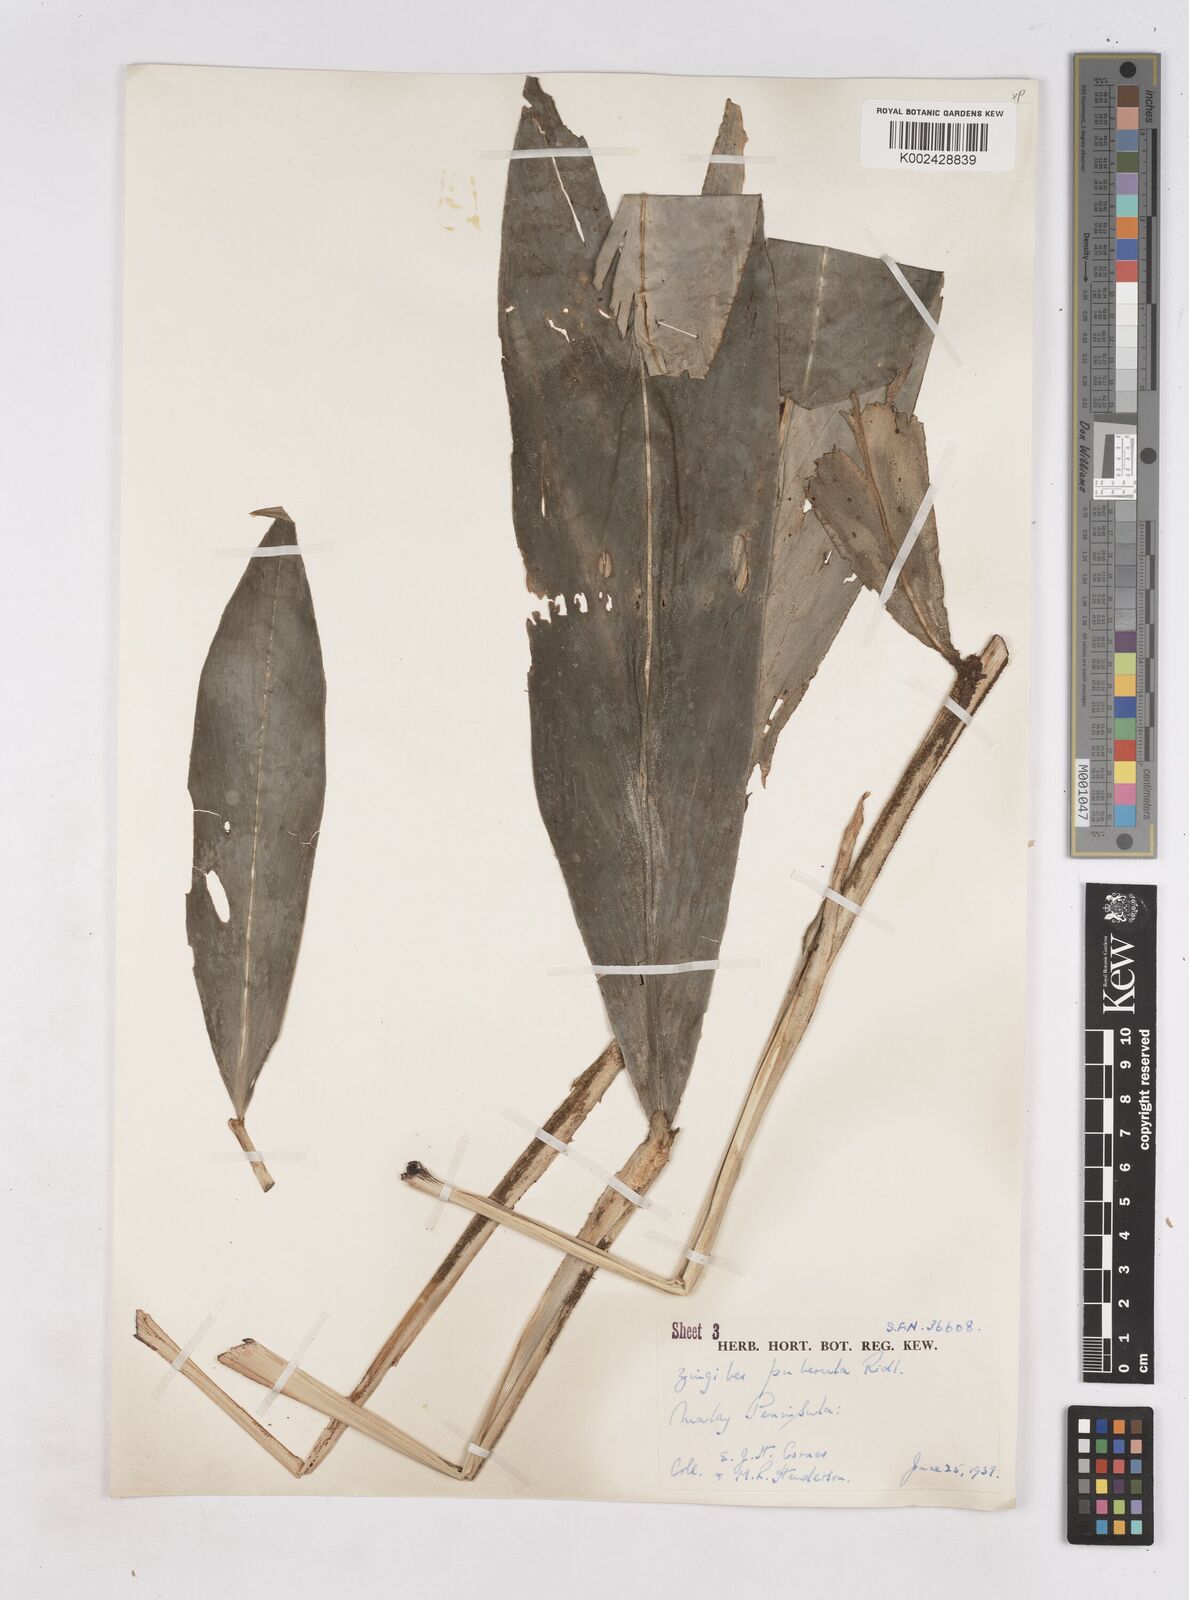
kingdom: Plantae
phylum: Tracheophyta
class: Liliopsida
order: Zingiberales
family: Zingiberaceae
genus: Zingiber
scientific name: Zingiber puberulum
